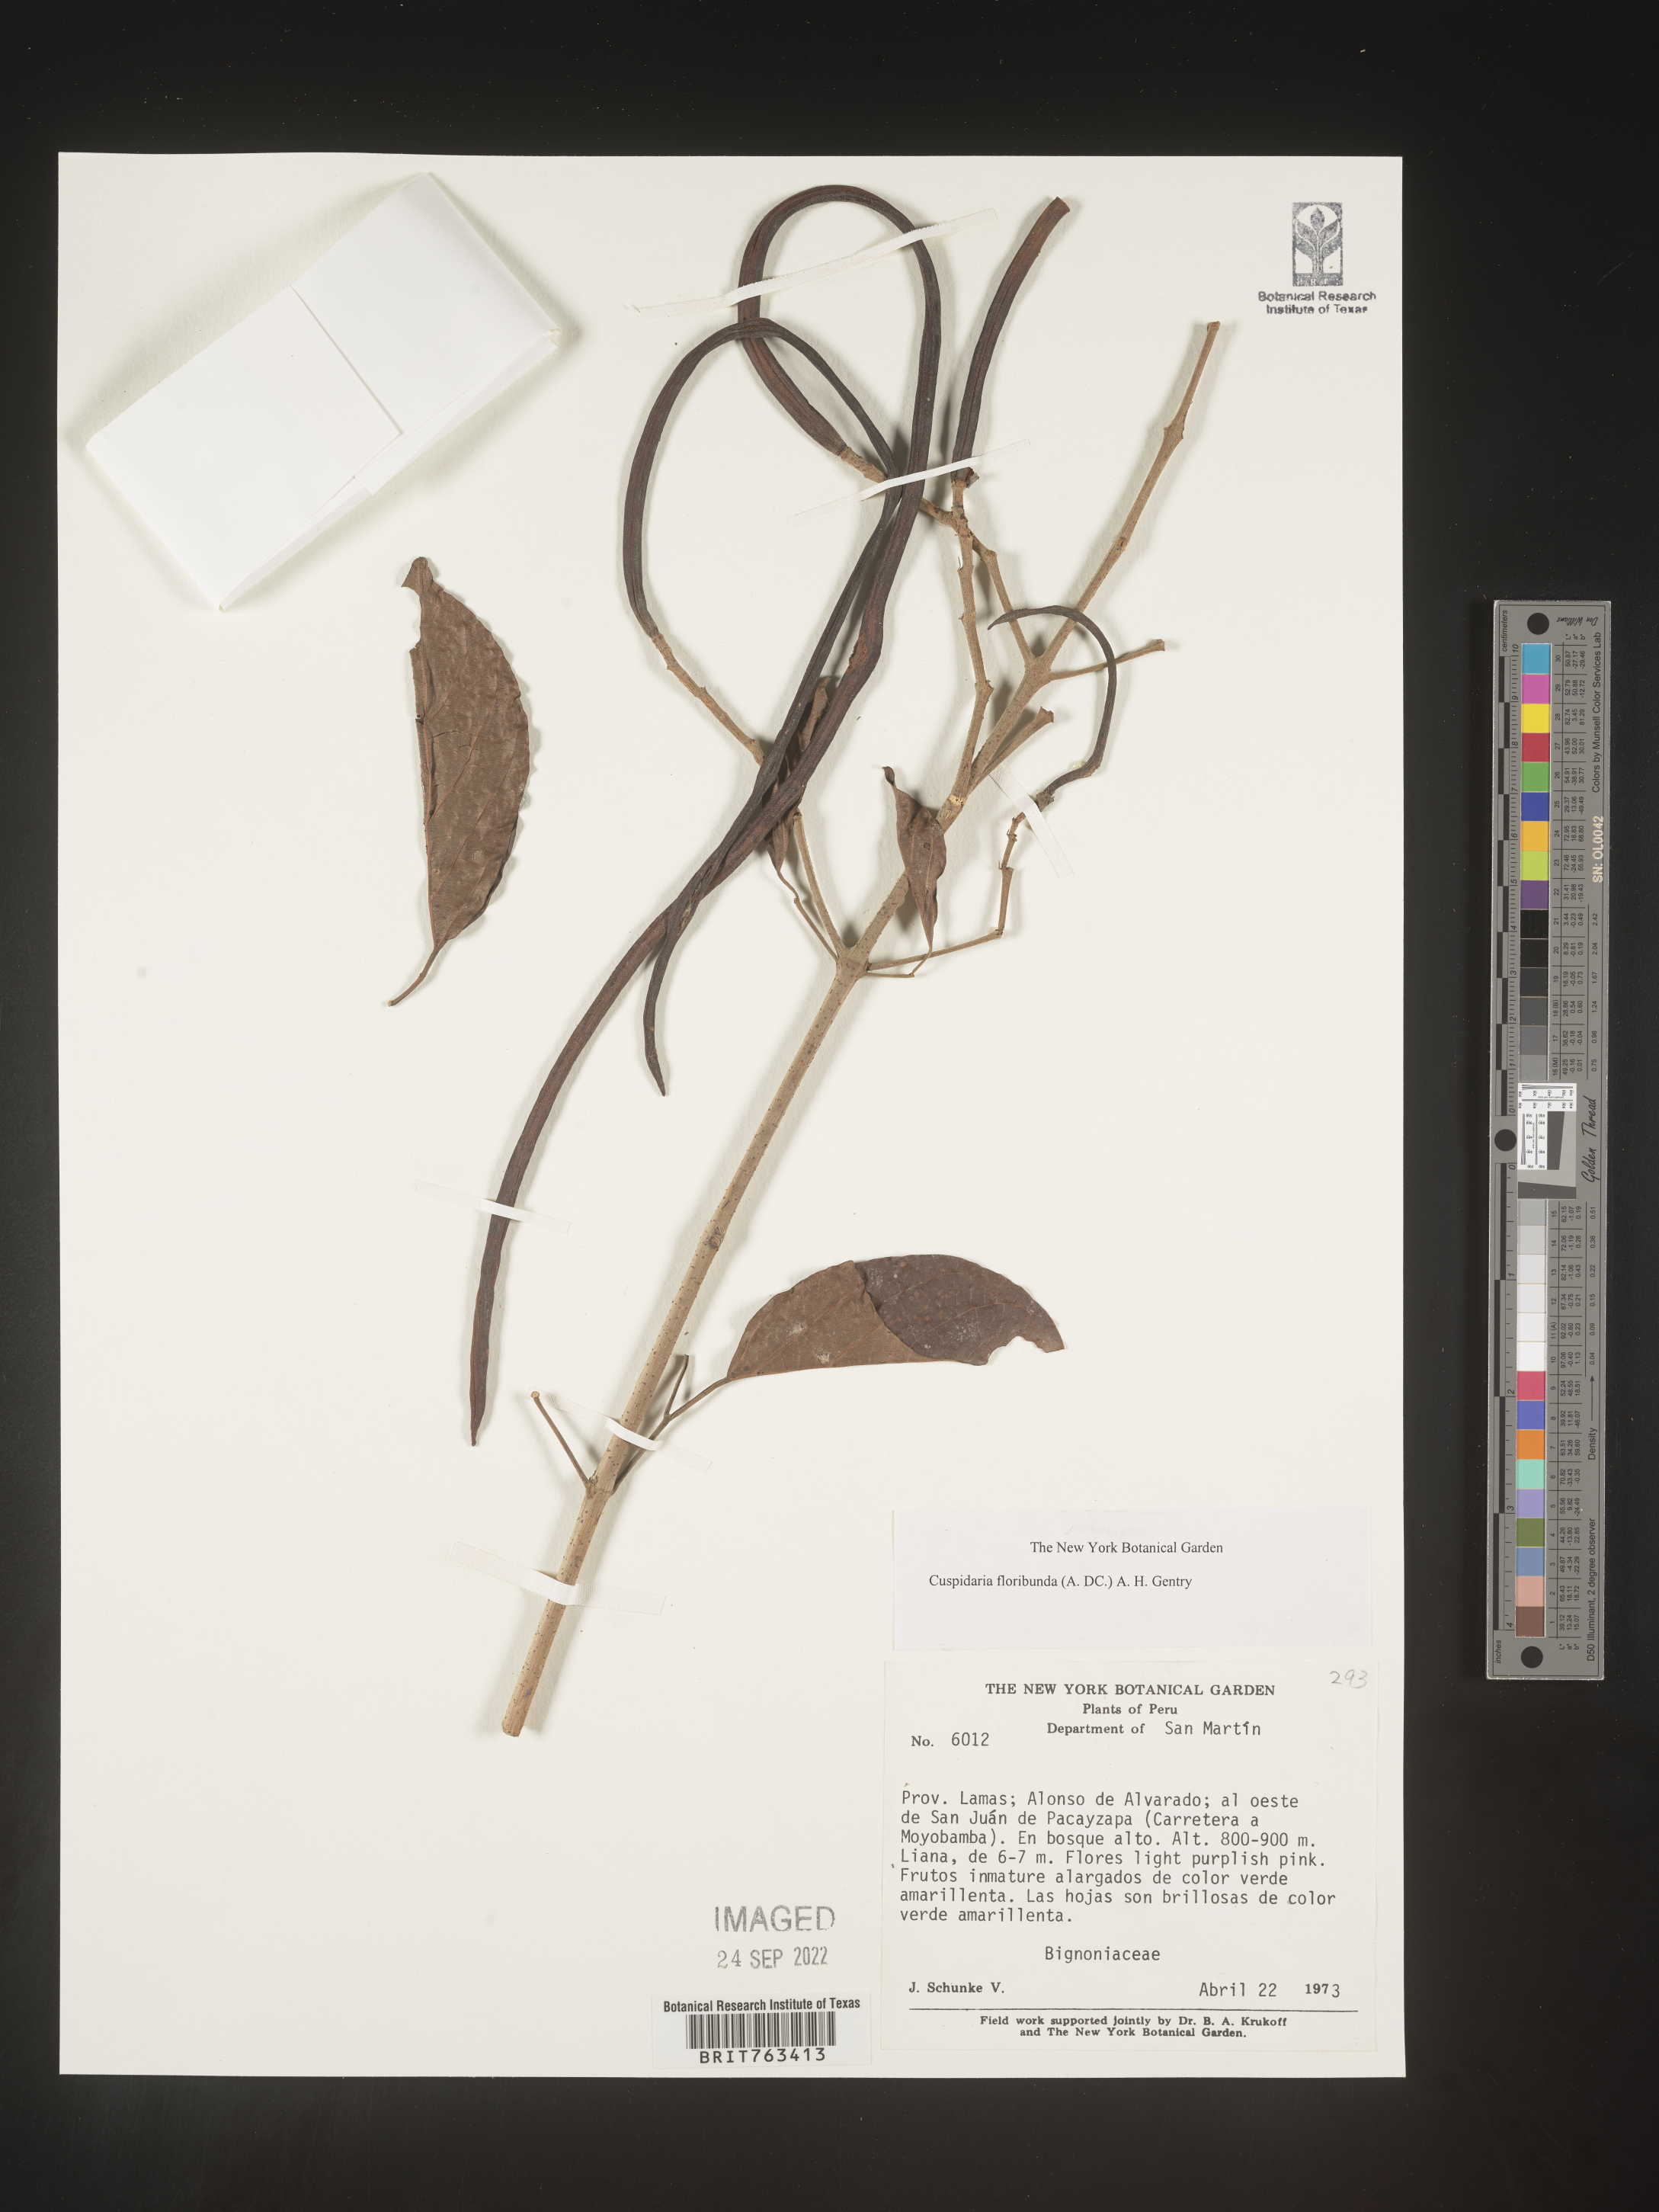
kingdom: Plantae
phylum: Tracheophyta
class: Magnoliopsida
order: Lamiales
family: Bignoniaceae
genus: Cuspidaria
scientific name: Cuspidaria
